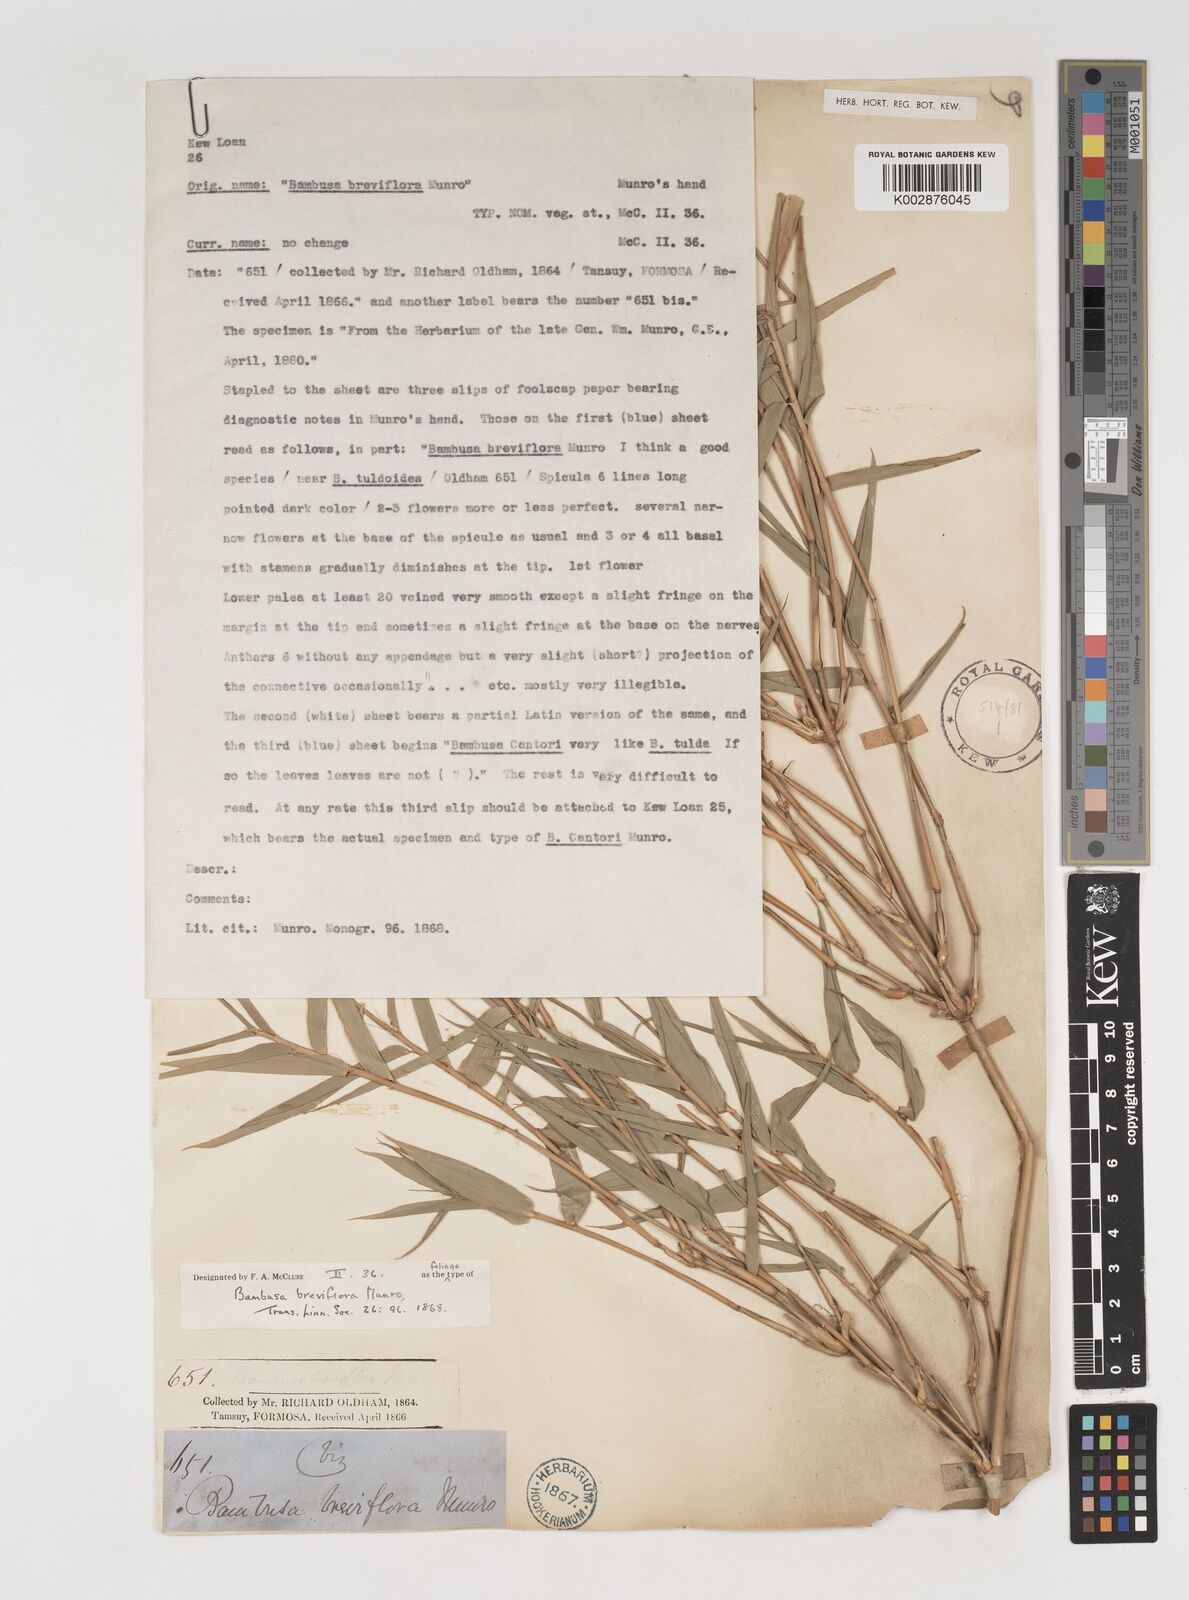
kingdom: Plantae
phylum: Tracheophyta
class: Liliopsida
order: Poales
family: Poaceae
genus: Bambusa
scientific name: Bambusa tuldoides
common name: Verdant bamboo
